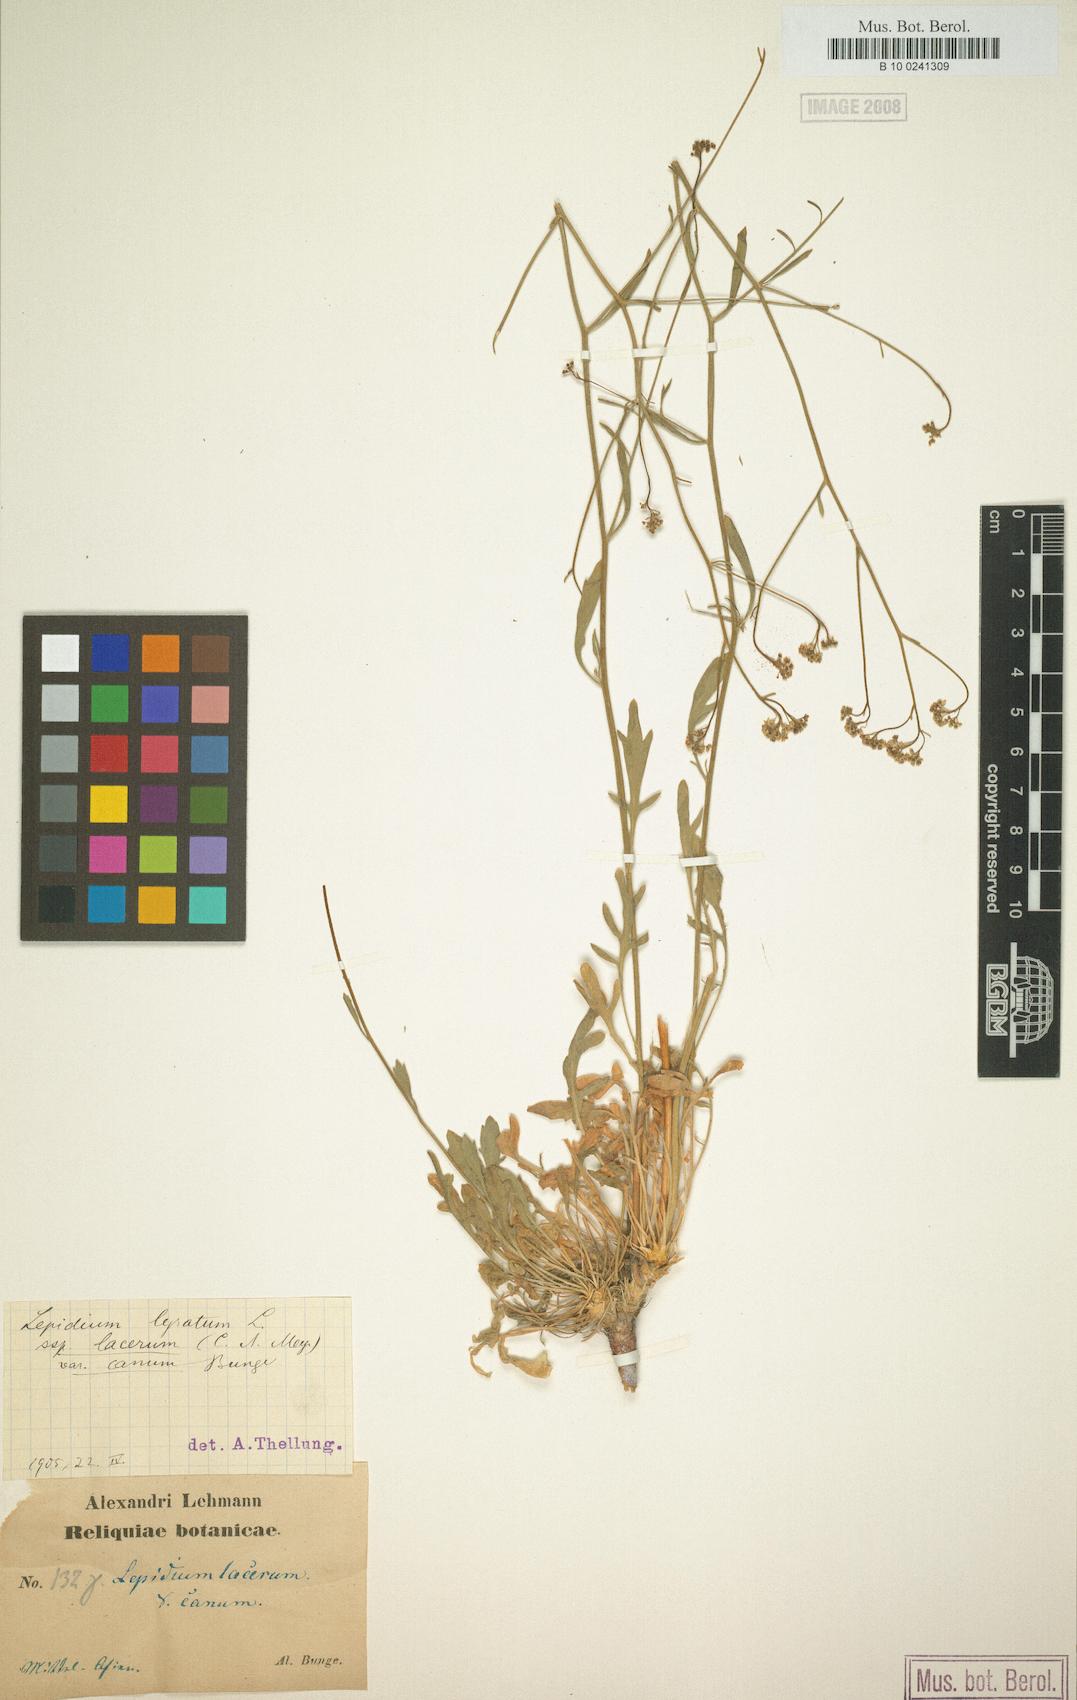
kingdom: Plantae
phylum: Tracheophyta
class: Magnoliopsida
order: Brassicales
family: Brassicaceae
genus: Lepidium
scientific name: Lepidium lyratum
